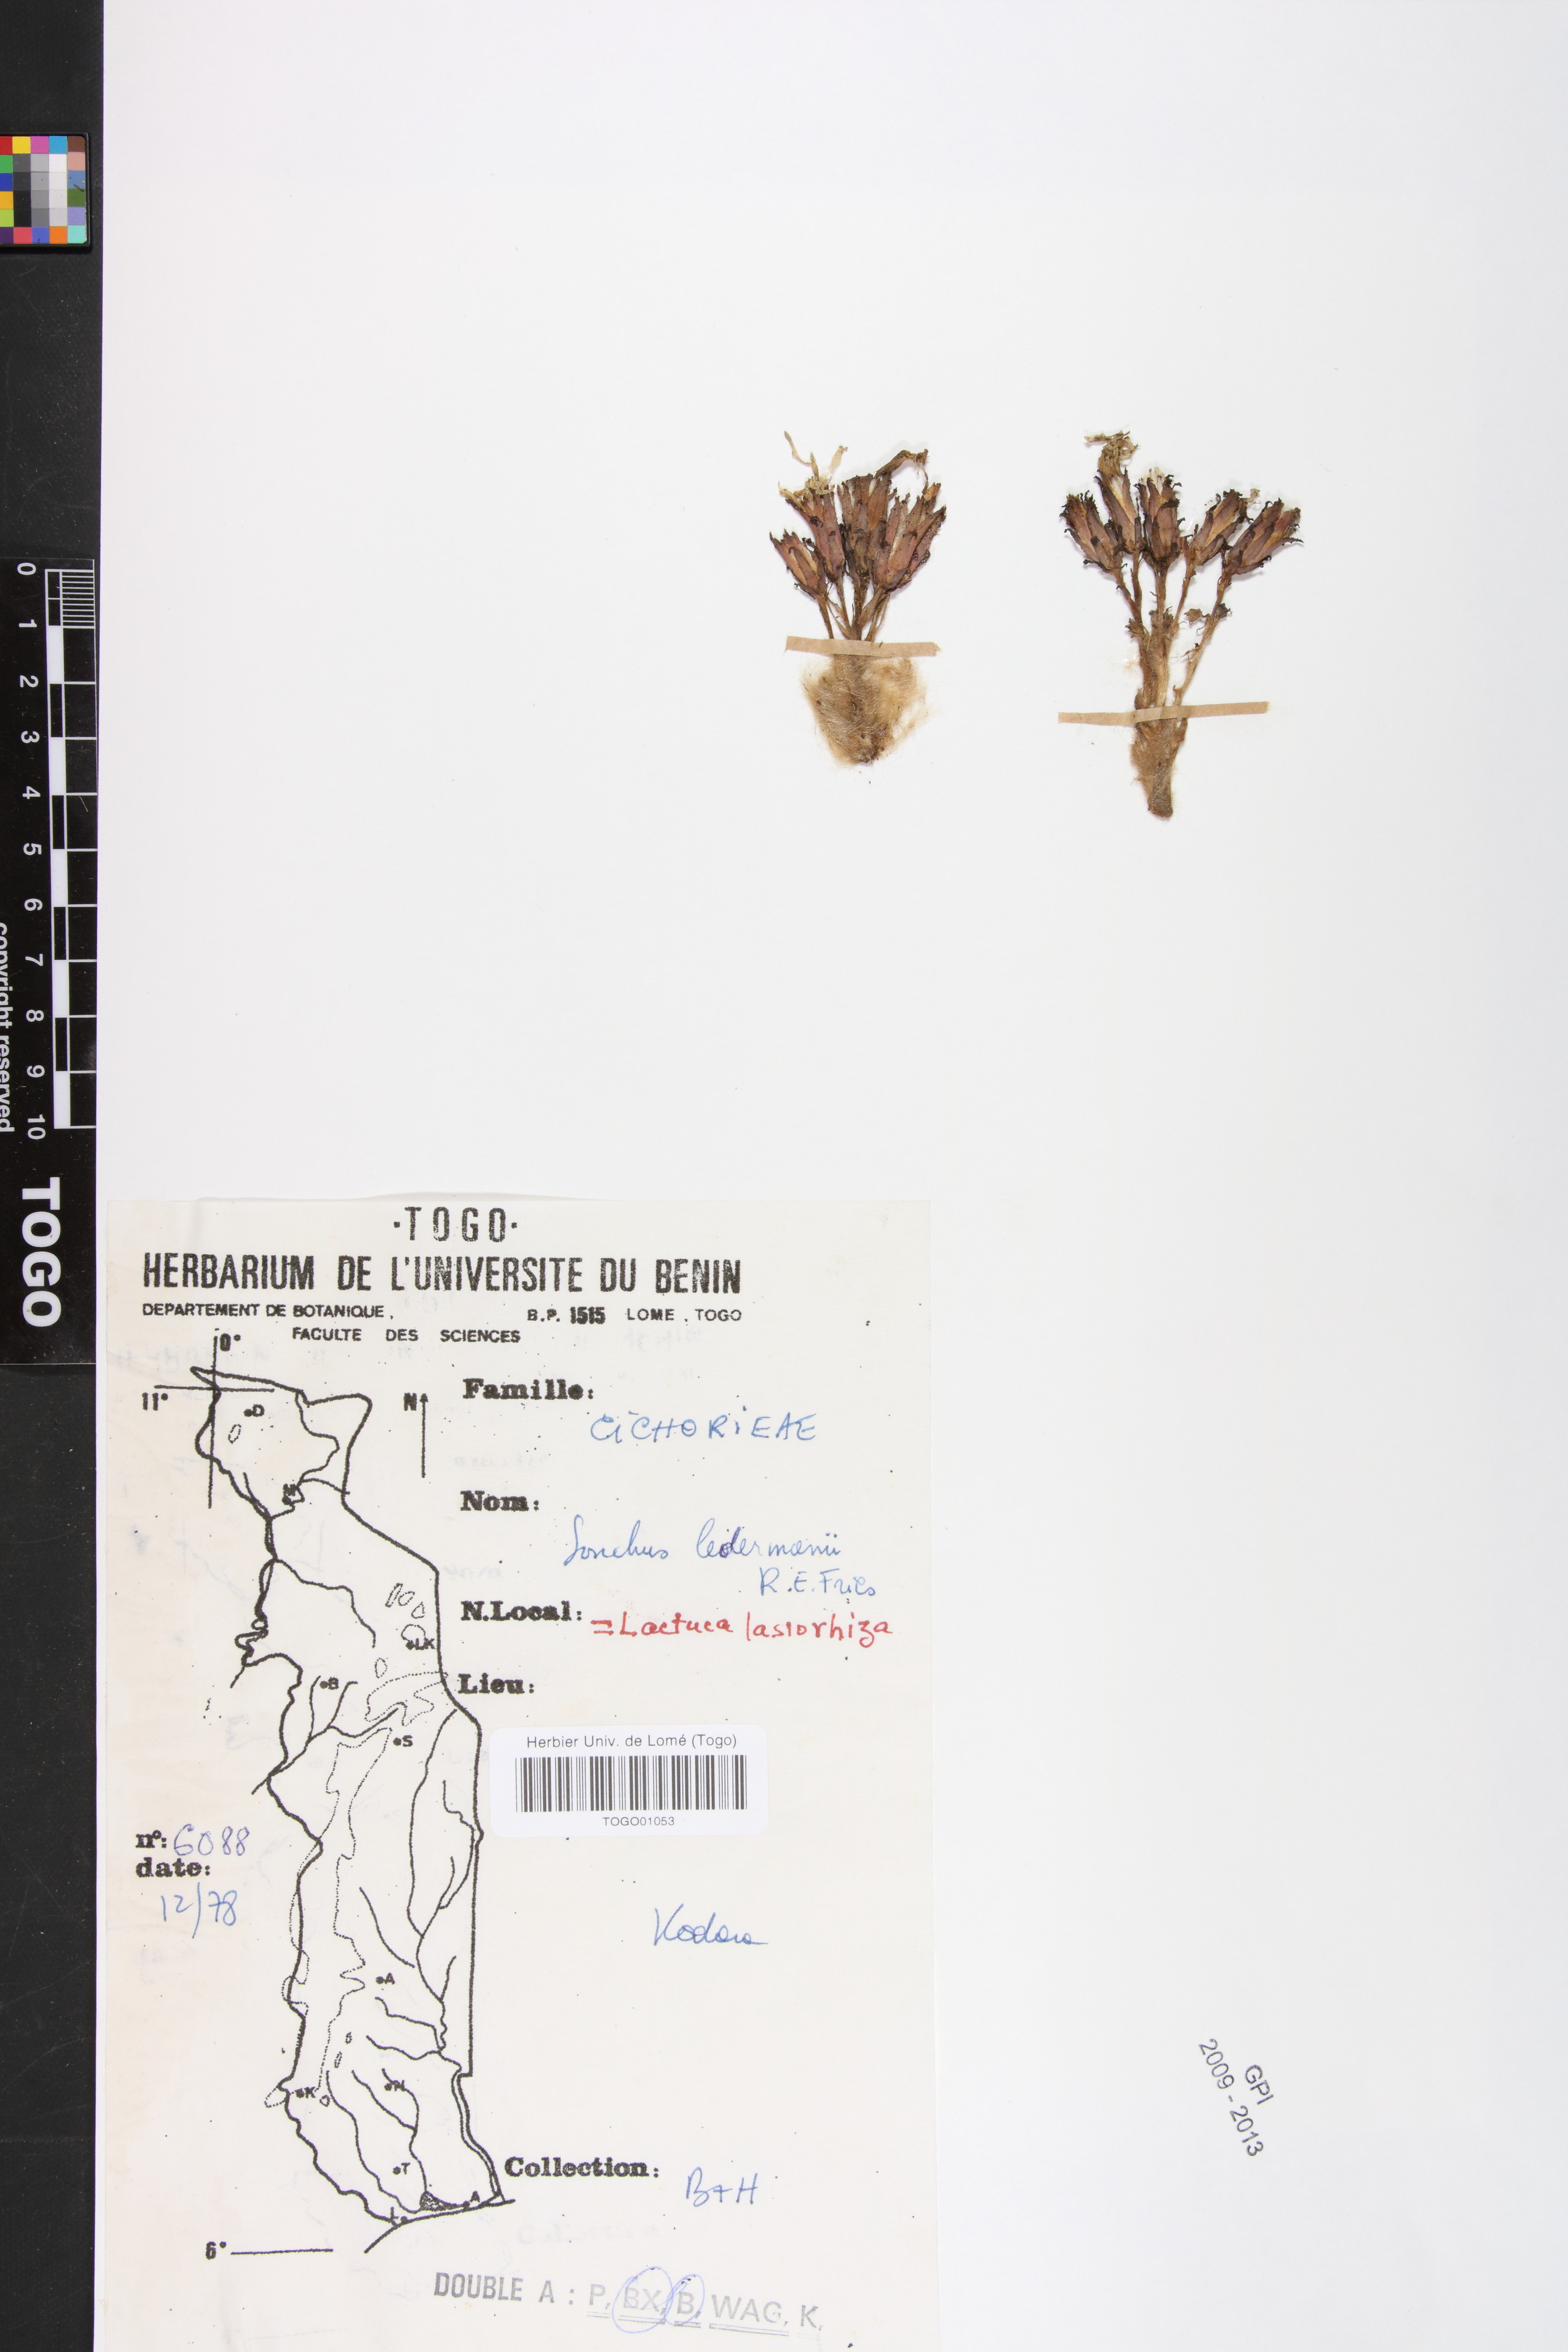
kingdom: Plantae
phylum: Tracheophyta
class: Magnoliopsida
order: Asterales
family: Asteraceae
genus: Lactuca
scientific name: Lactuca inermis
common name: Wild lettuce
